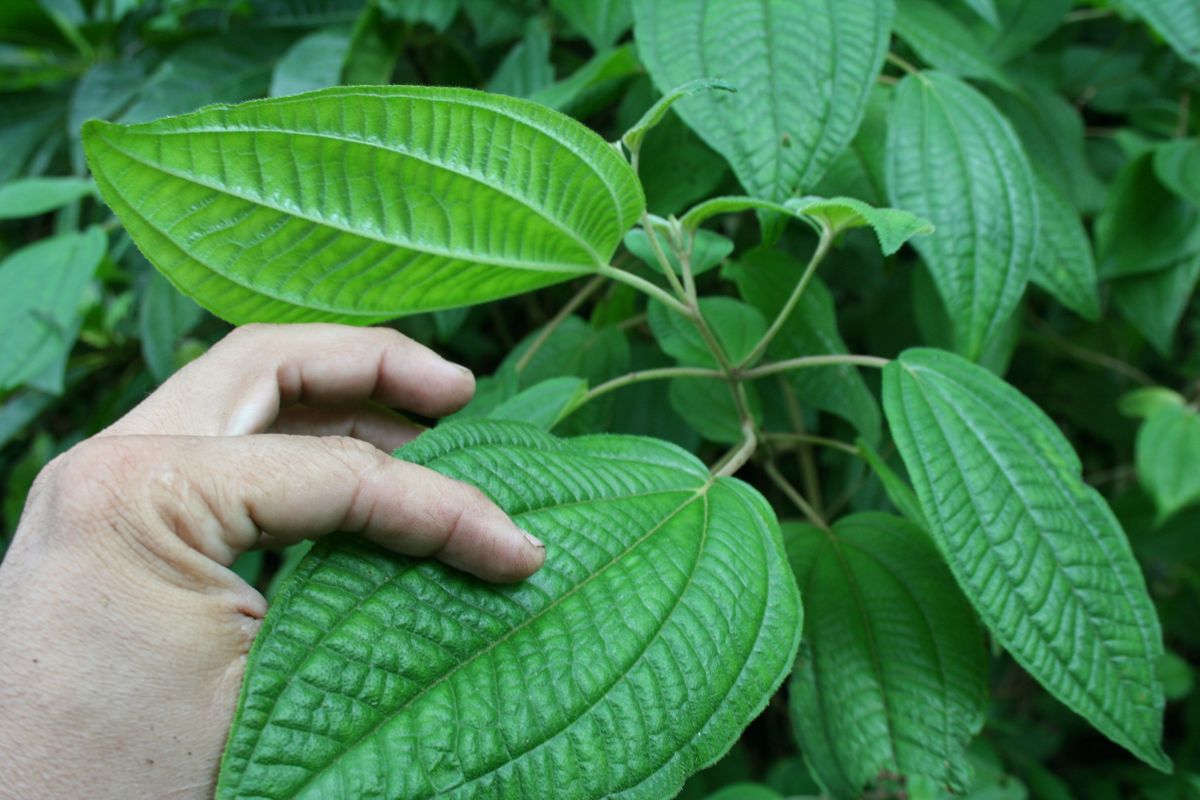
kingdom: Plantae
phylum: Tracheophyta
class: Magnoliopsida
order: Myrtales
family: Melastomataceae
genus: Miconia
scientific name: Miconia guatemalensis
